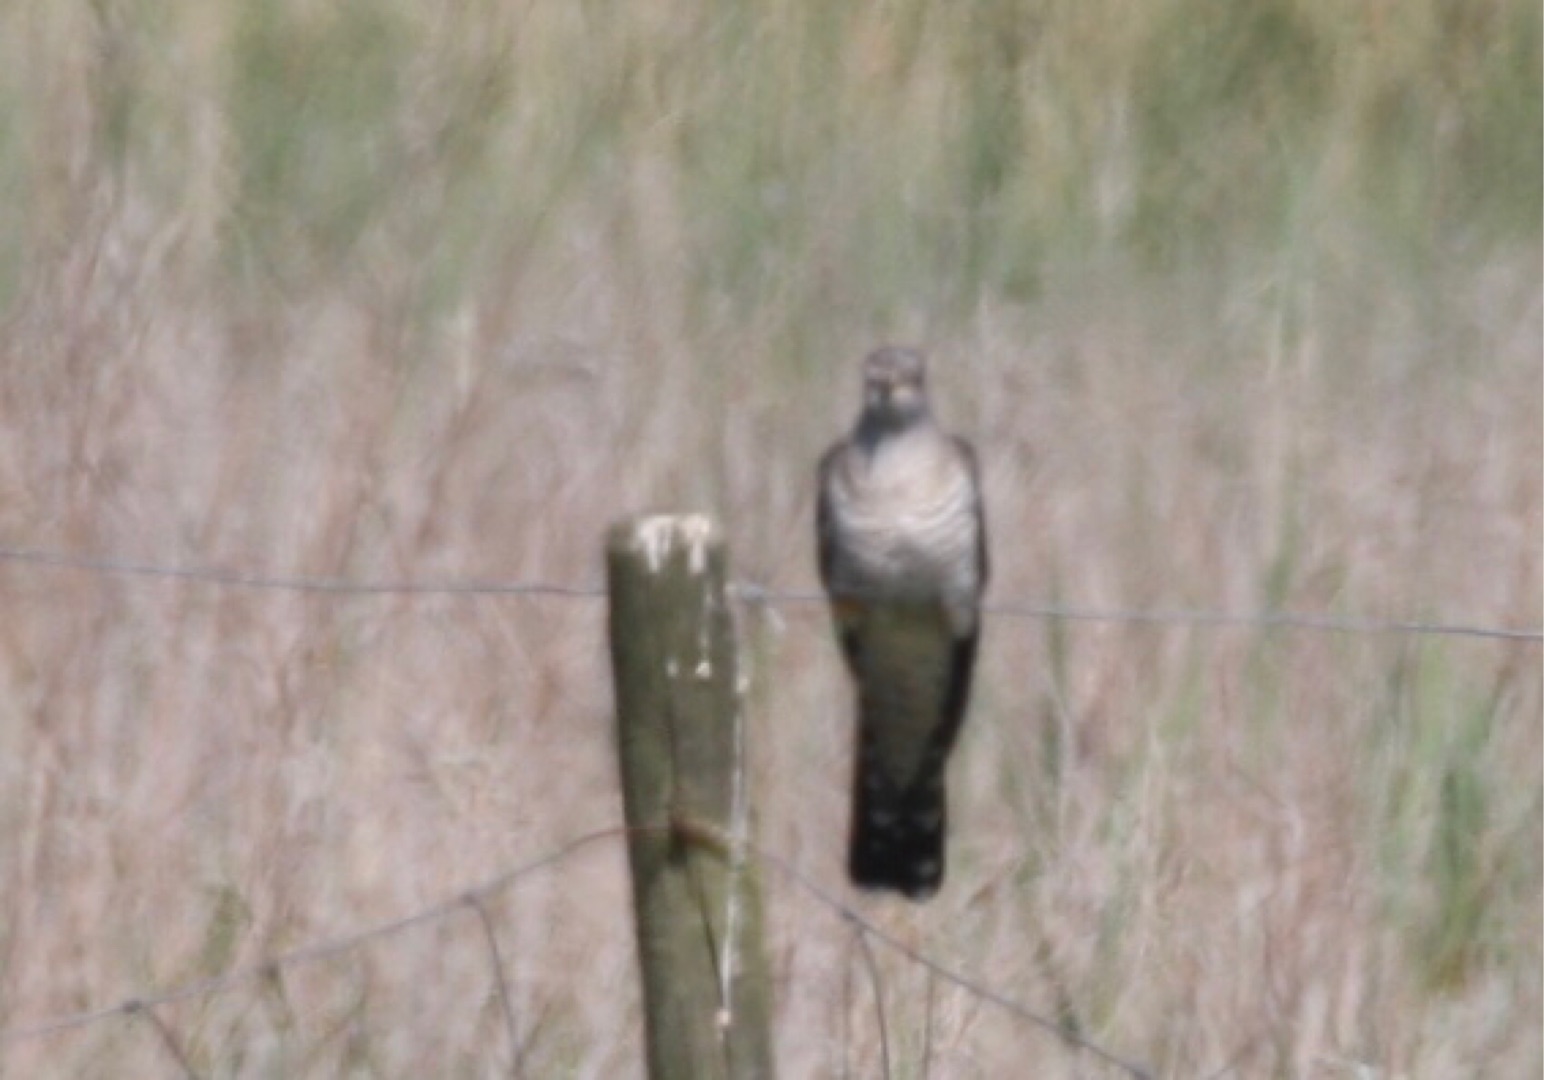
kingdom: Animalia
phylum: Chordata
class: Aves
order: Cuculiformes
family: Cuculidae
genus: Cuculus
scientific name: Cuculus canorus
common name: Gøg
